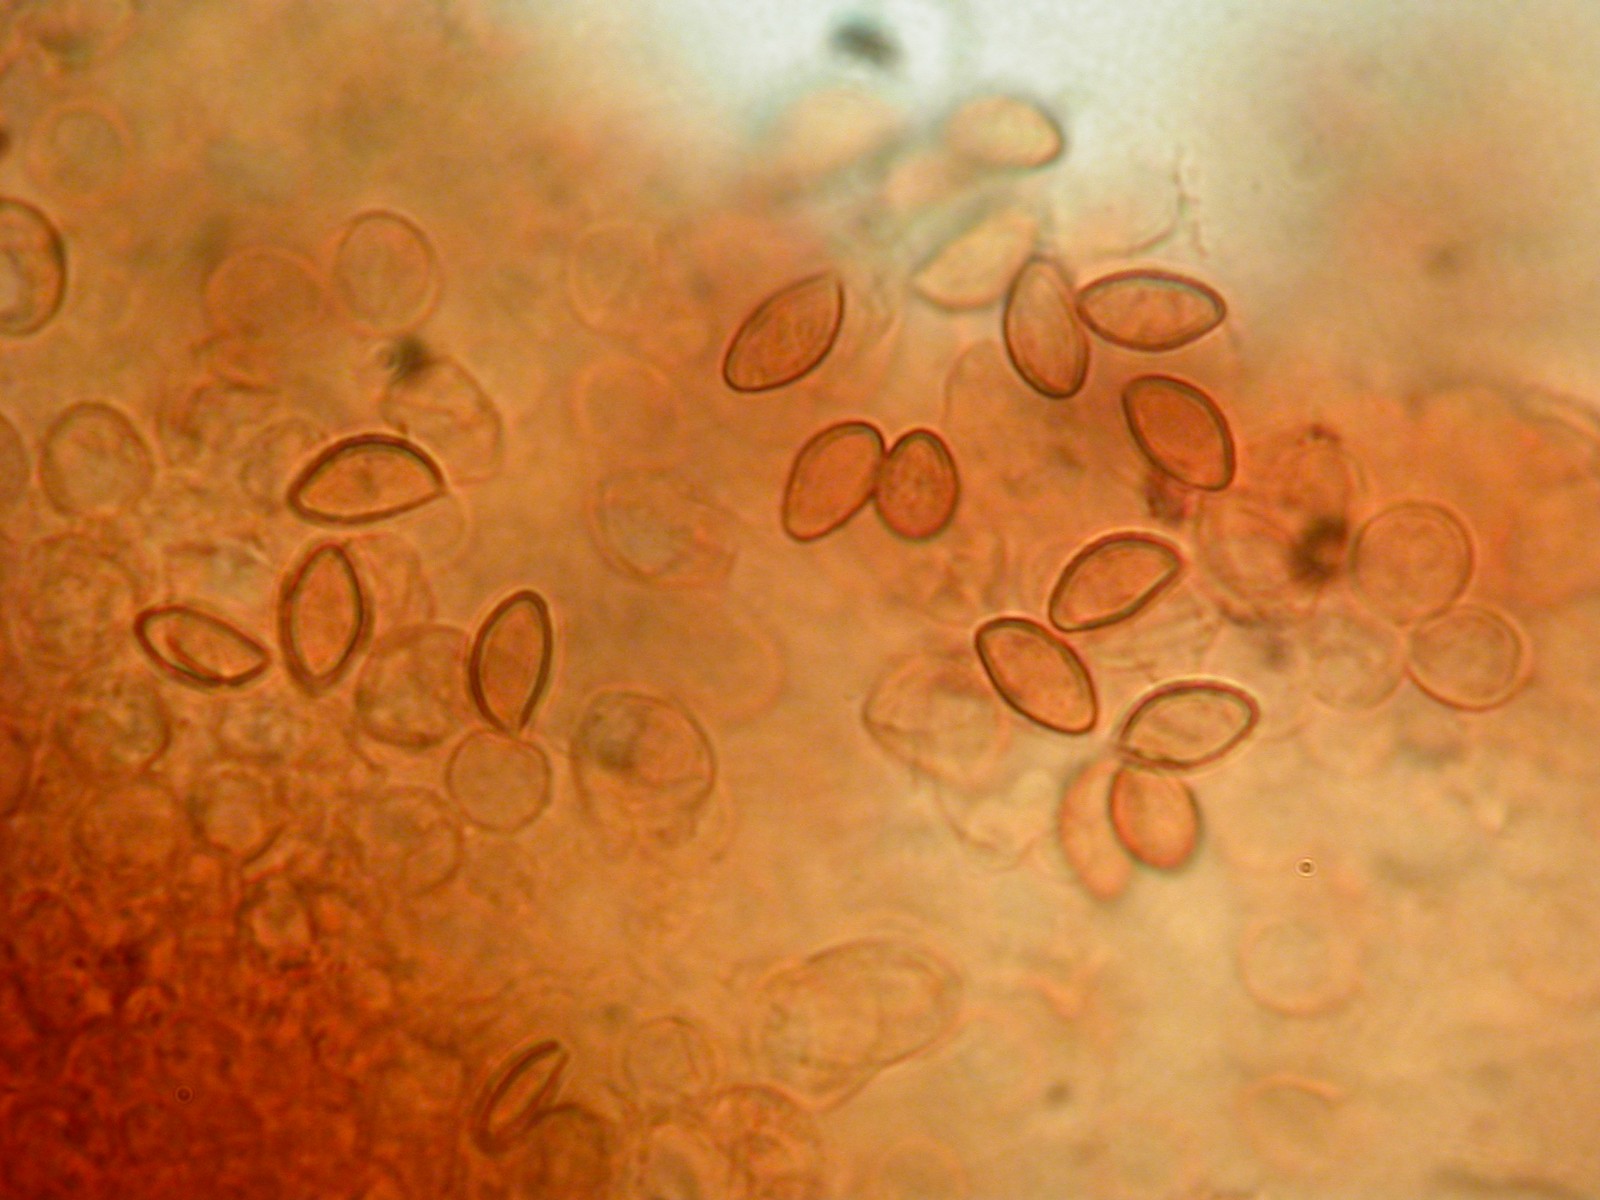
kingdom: Fungi
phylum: Basidiomycota
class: Agaricomycetes
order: Agaricales
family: Cortinariaceae
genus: Phlegmacium
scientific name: Phlegmacium areni-silvae
